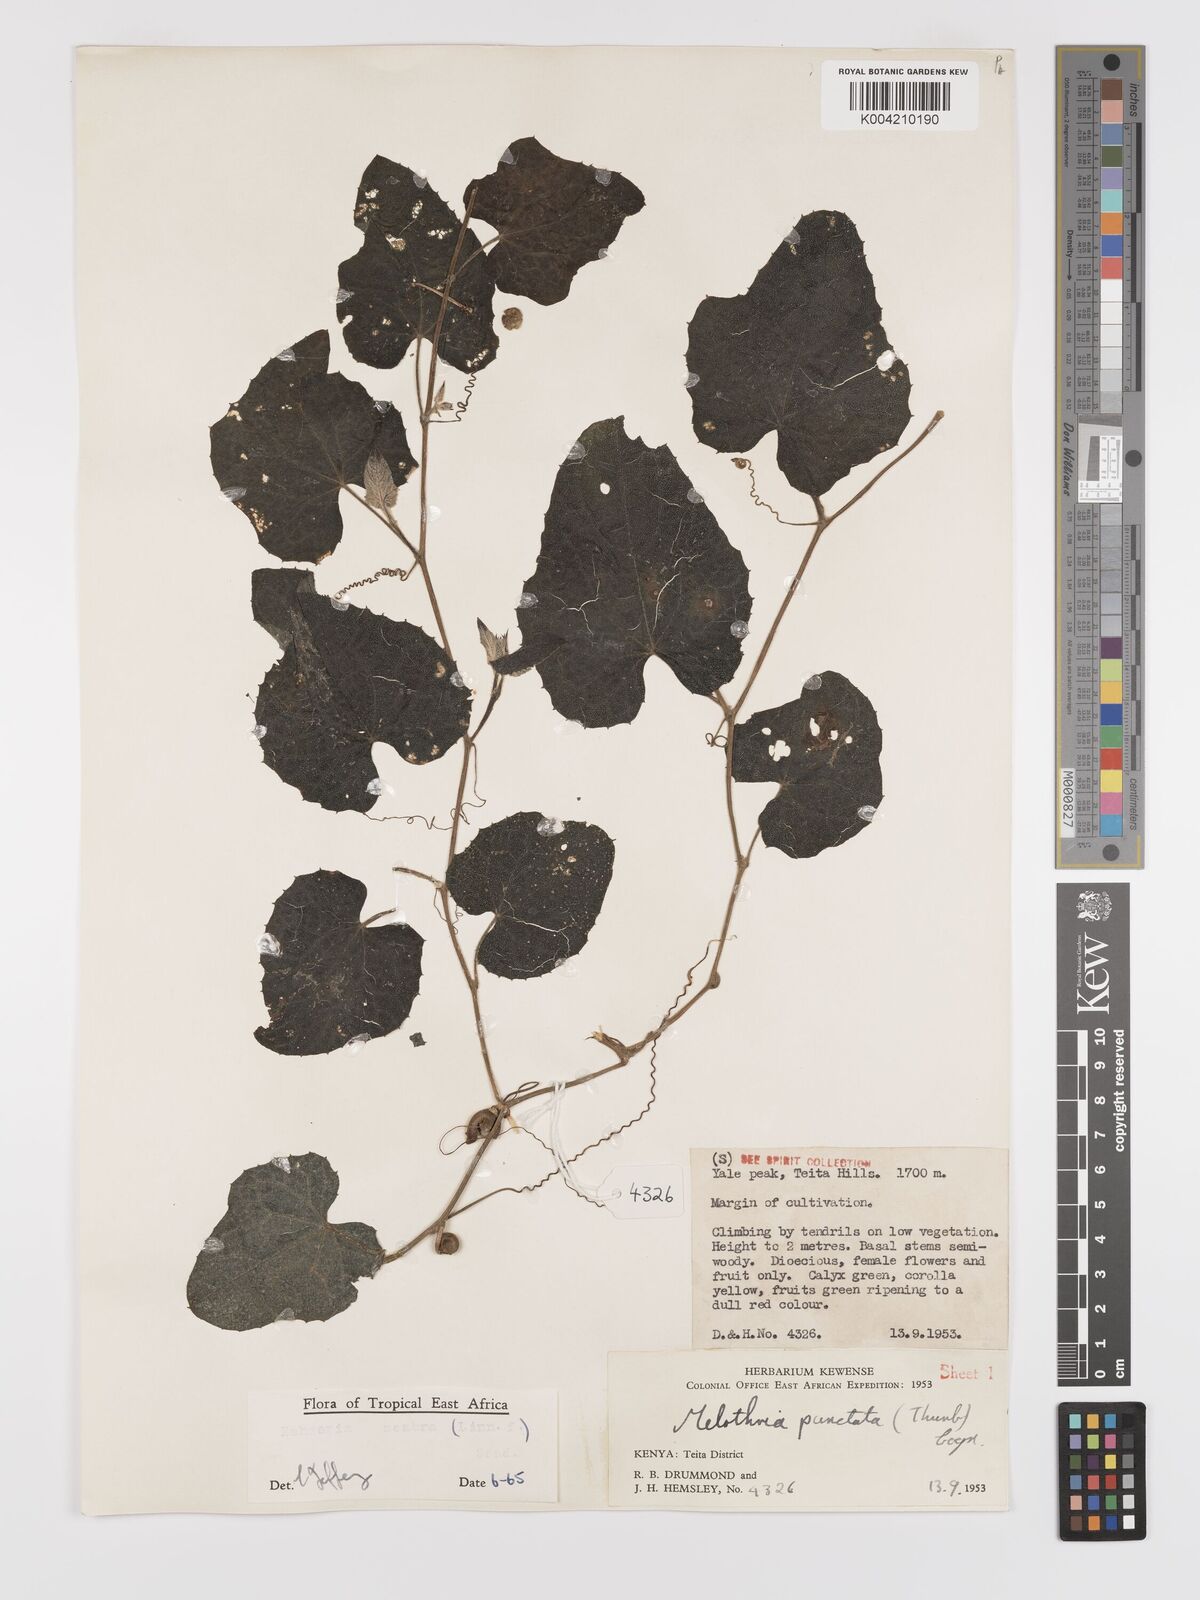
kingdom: Plantae
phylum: Tracheophyta
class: Magnoliopsida
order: Cucurbitales
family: Cucurbitaceae
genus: Zehneria
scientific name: Zehneria scabra
